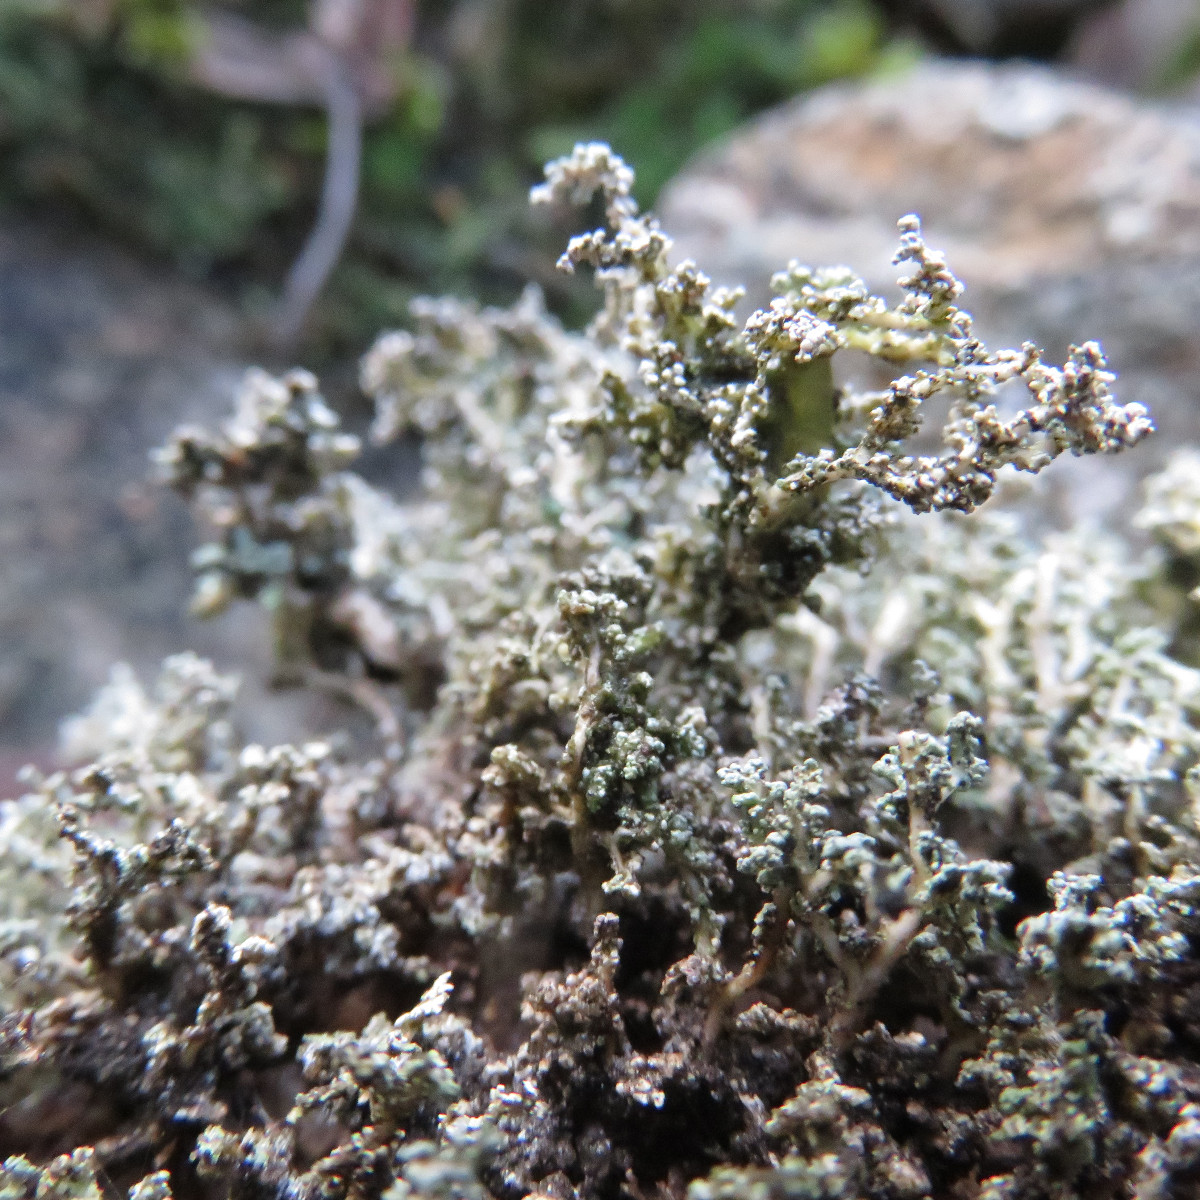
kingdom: Fungi
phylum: Ascomycota
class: Lecanoromycetes
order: Lecanorales
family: Stereocaulaceae
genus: Stereocaulon
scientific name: Stereocaulon vesuvianum
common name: skjold-korallav
